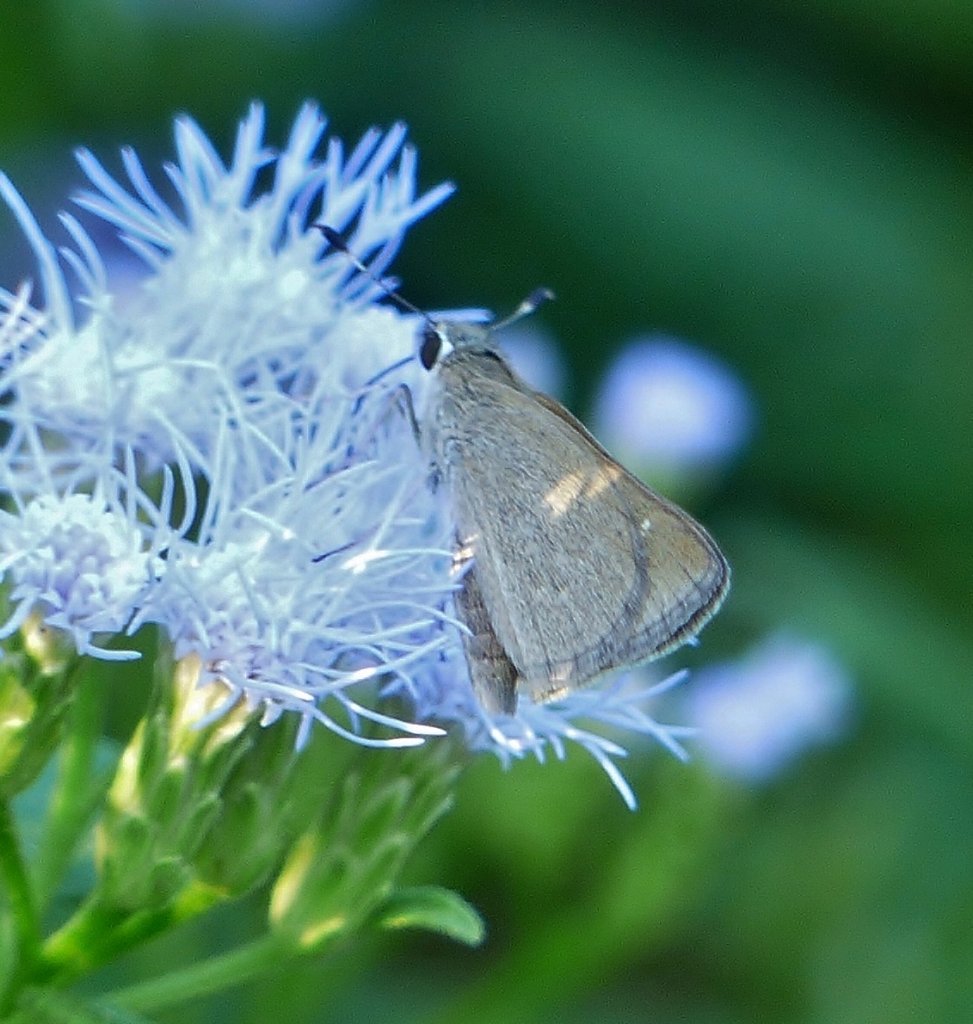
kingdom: Animalia
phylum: Arthropoda
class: Insecta
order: Lepidoptera
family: Hesperiidae
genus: Lerodea
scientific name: Lerodea eufala
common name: Eufala Skipper
